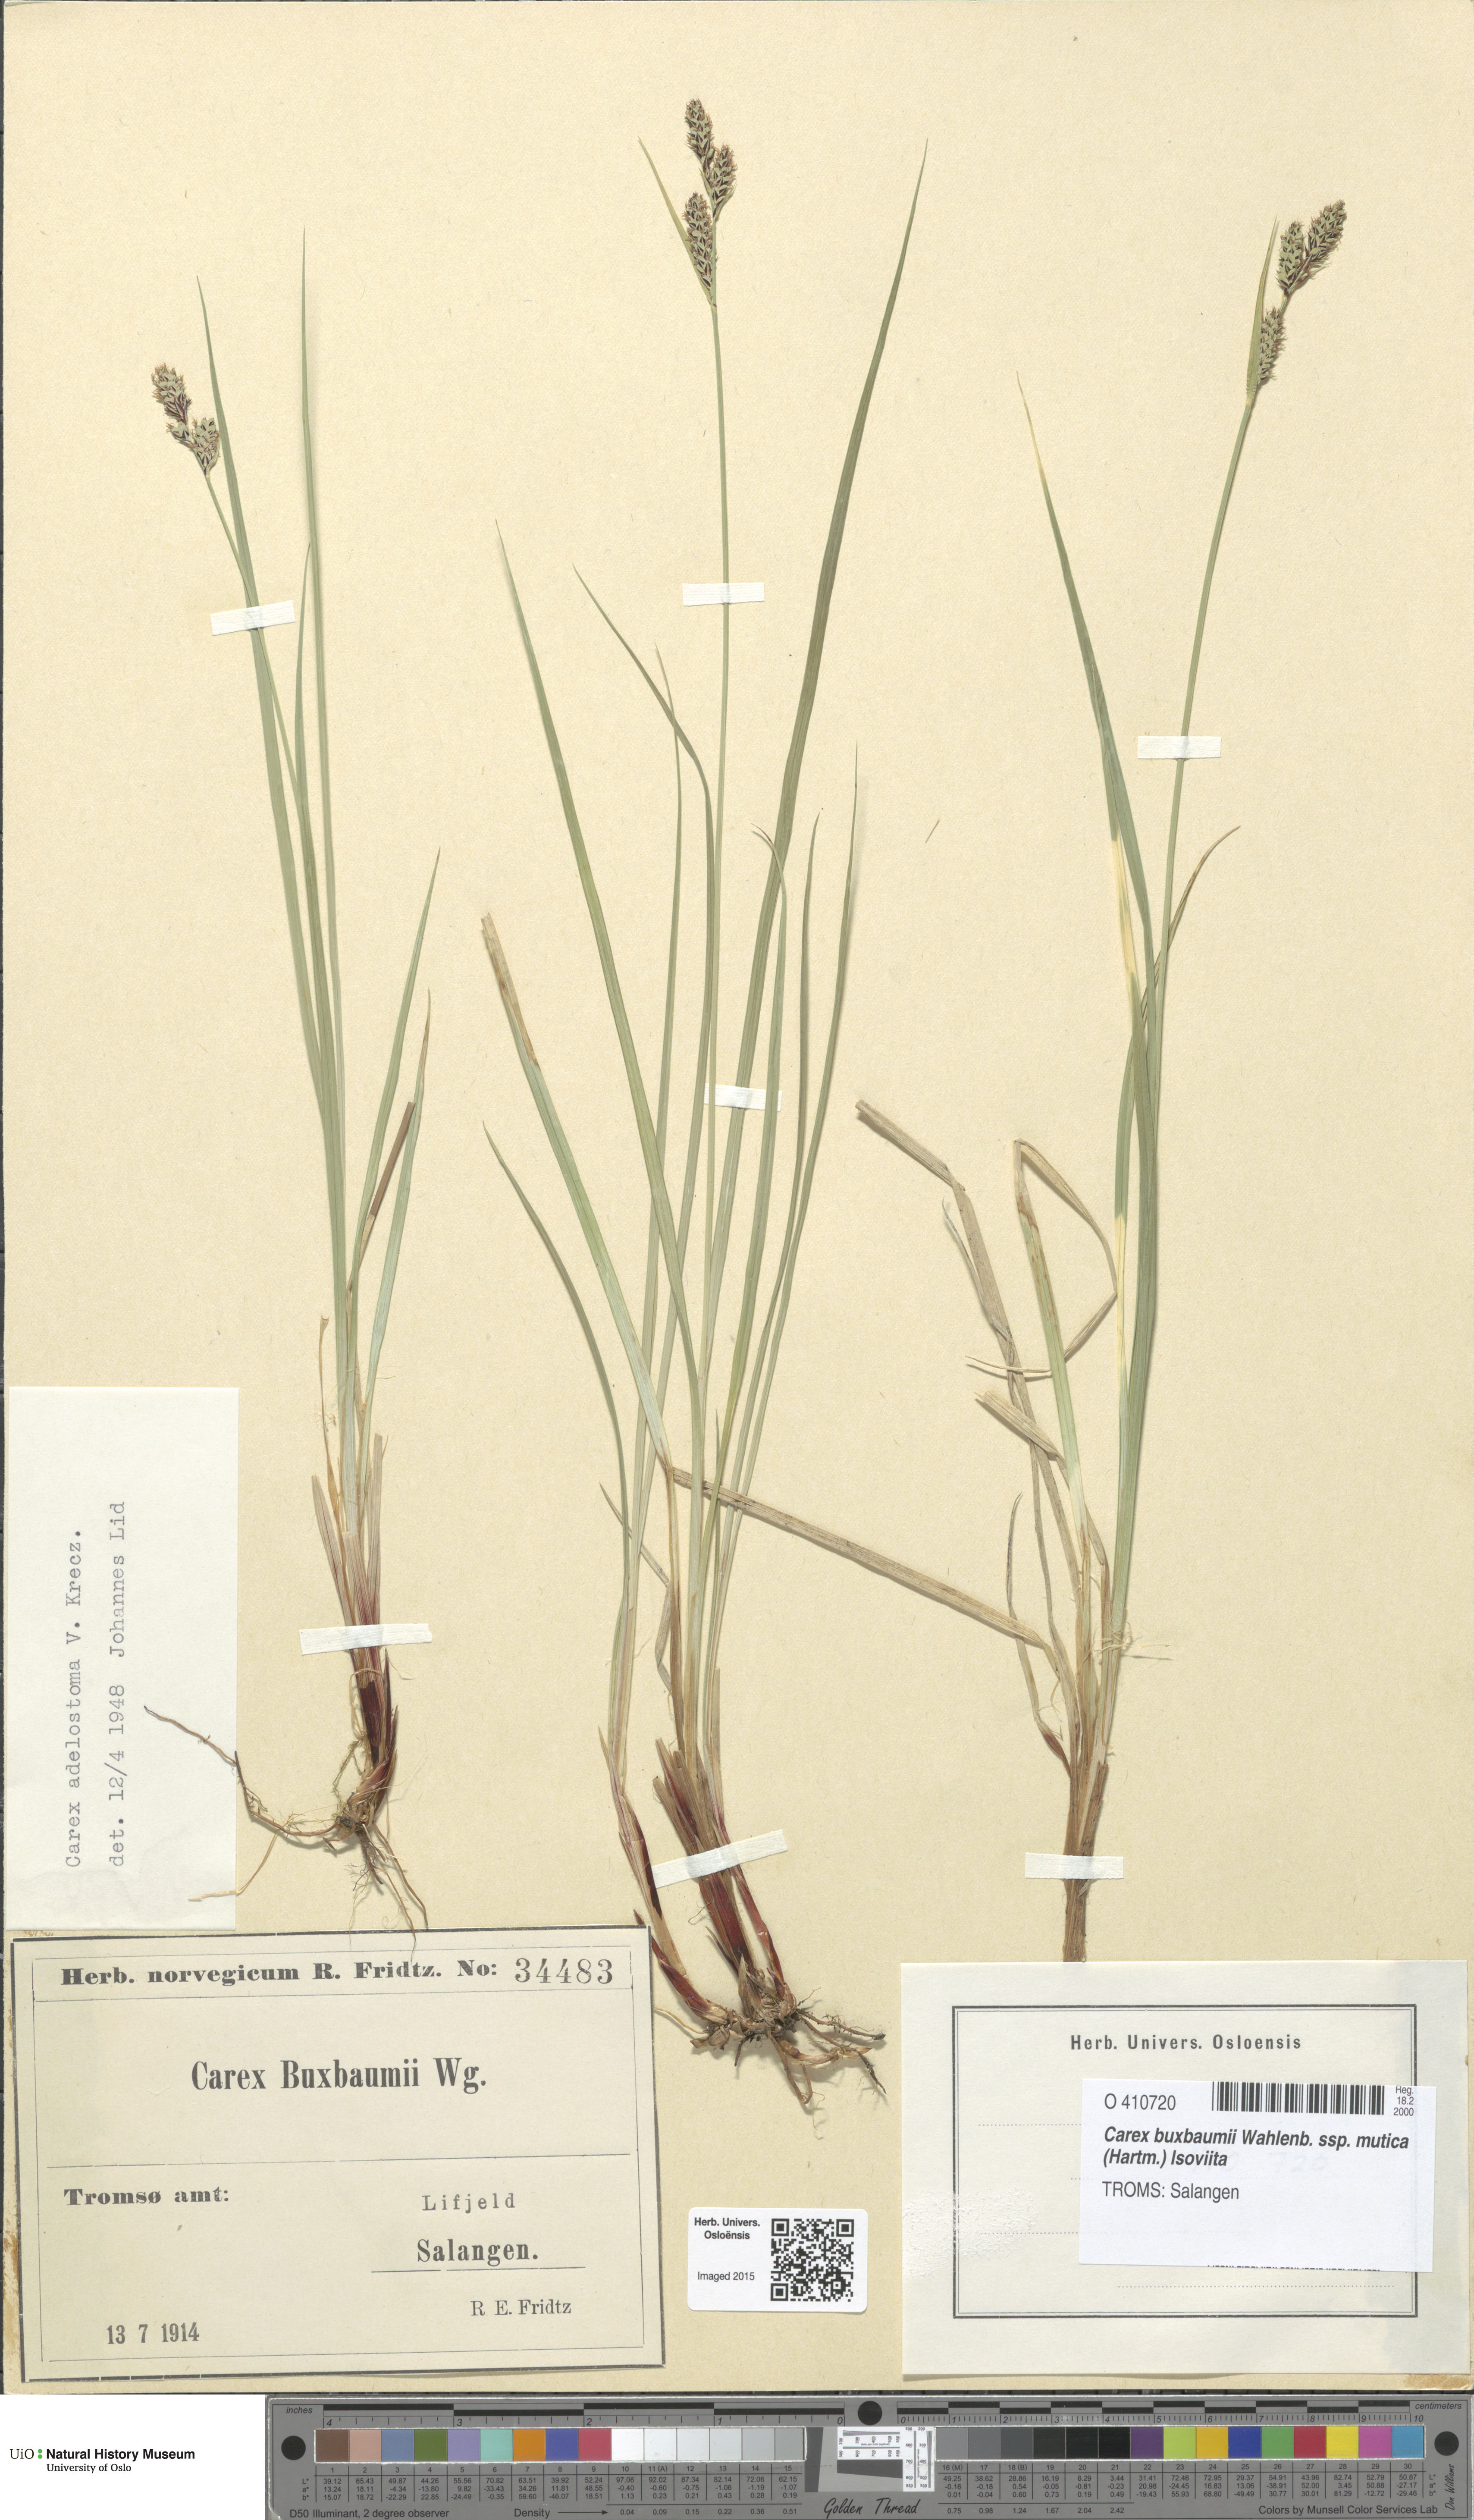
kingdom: Plantae
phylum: Tracheophyta
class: Liliopsida
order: Poales
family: Cyperaceae
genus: Carex
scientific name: Carex adelostoma
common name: Circumpolar sedge
